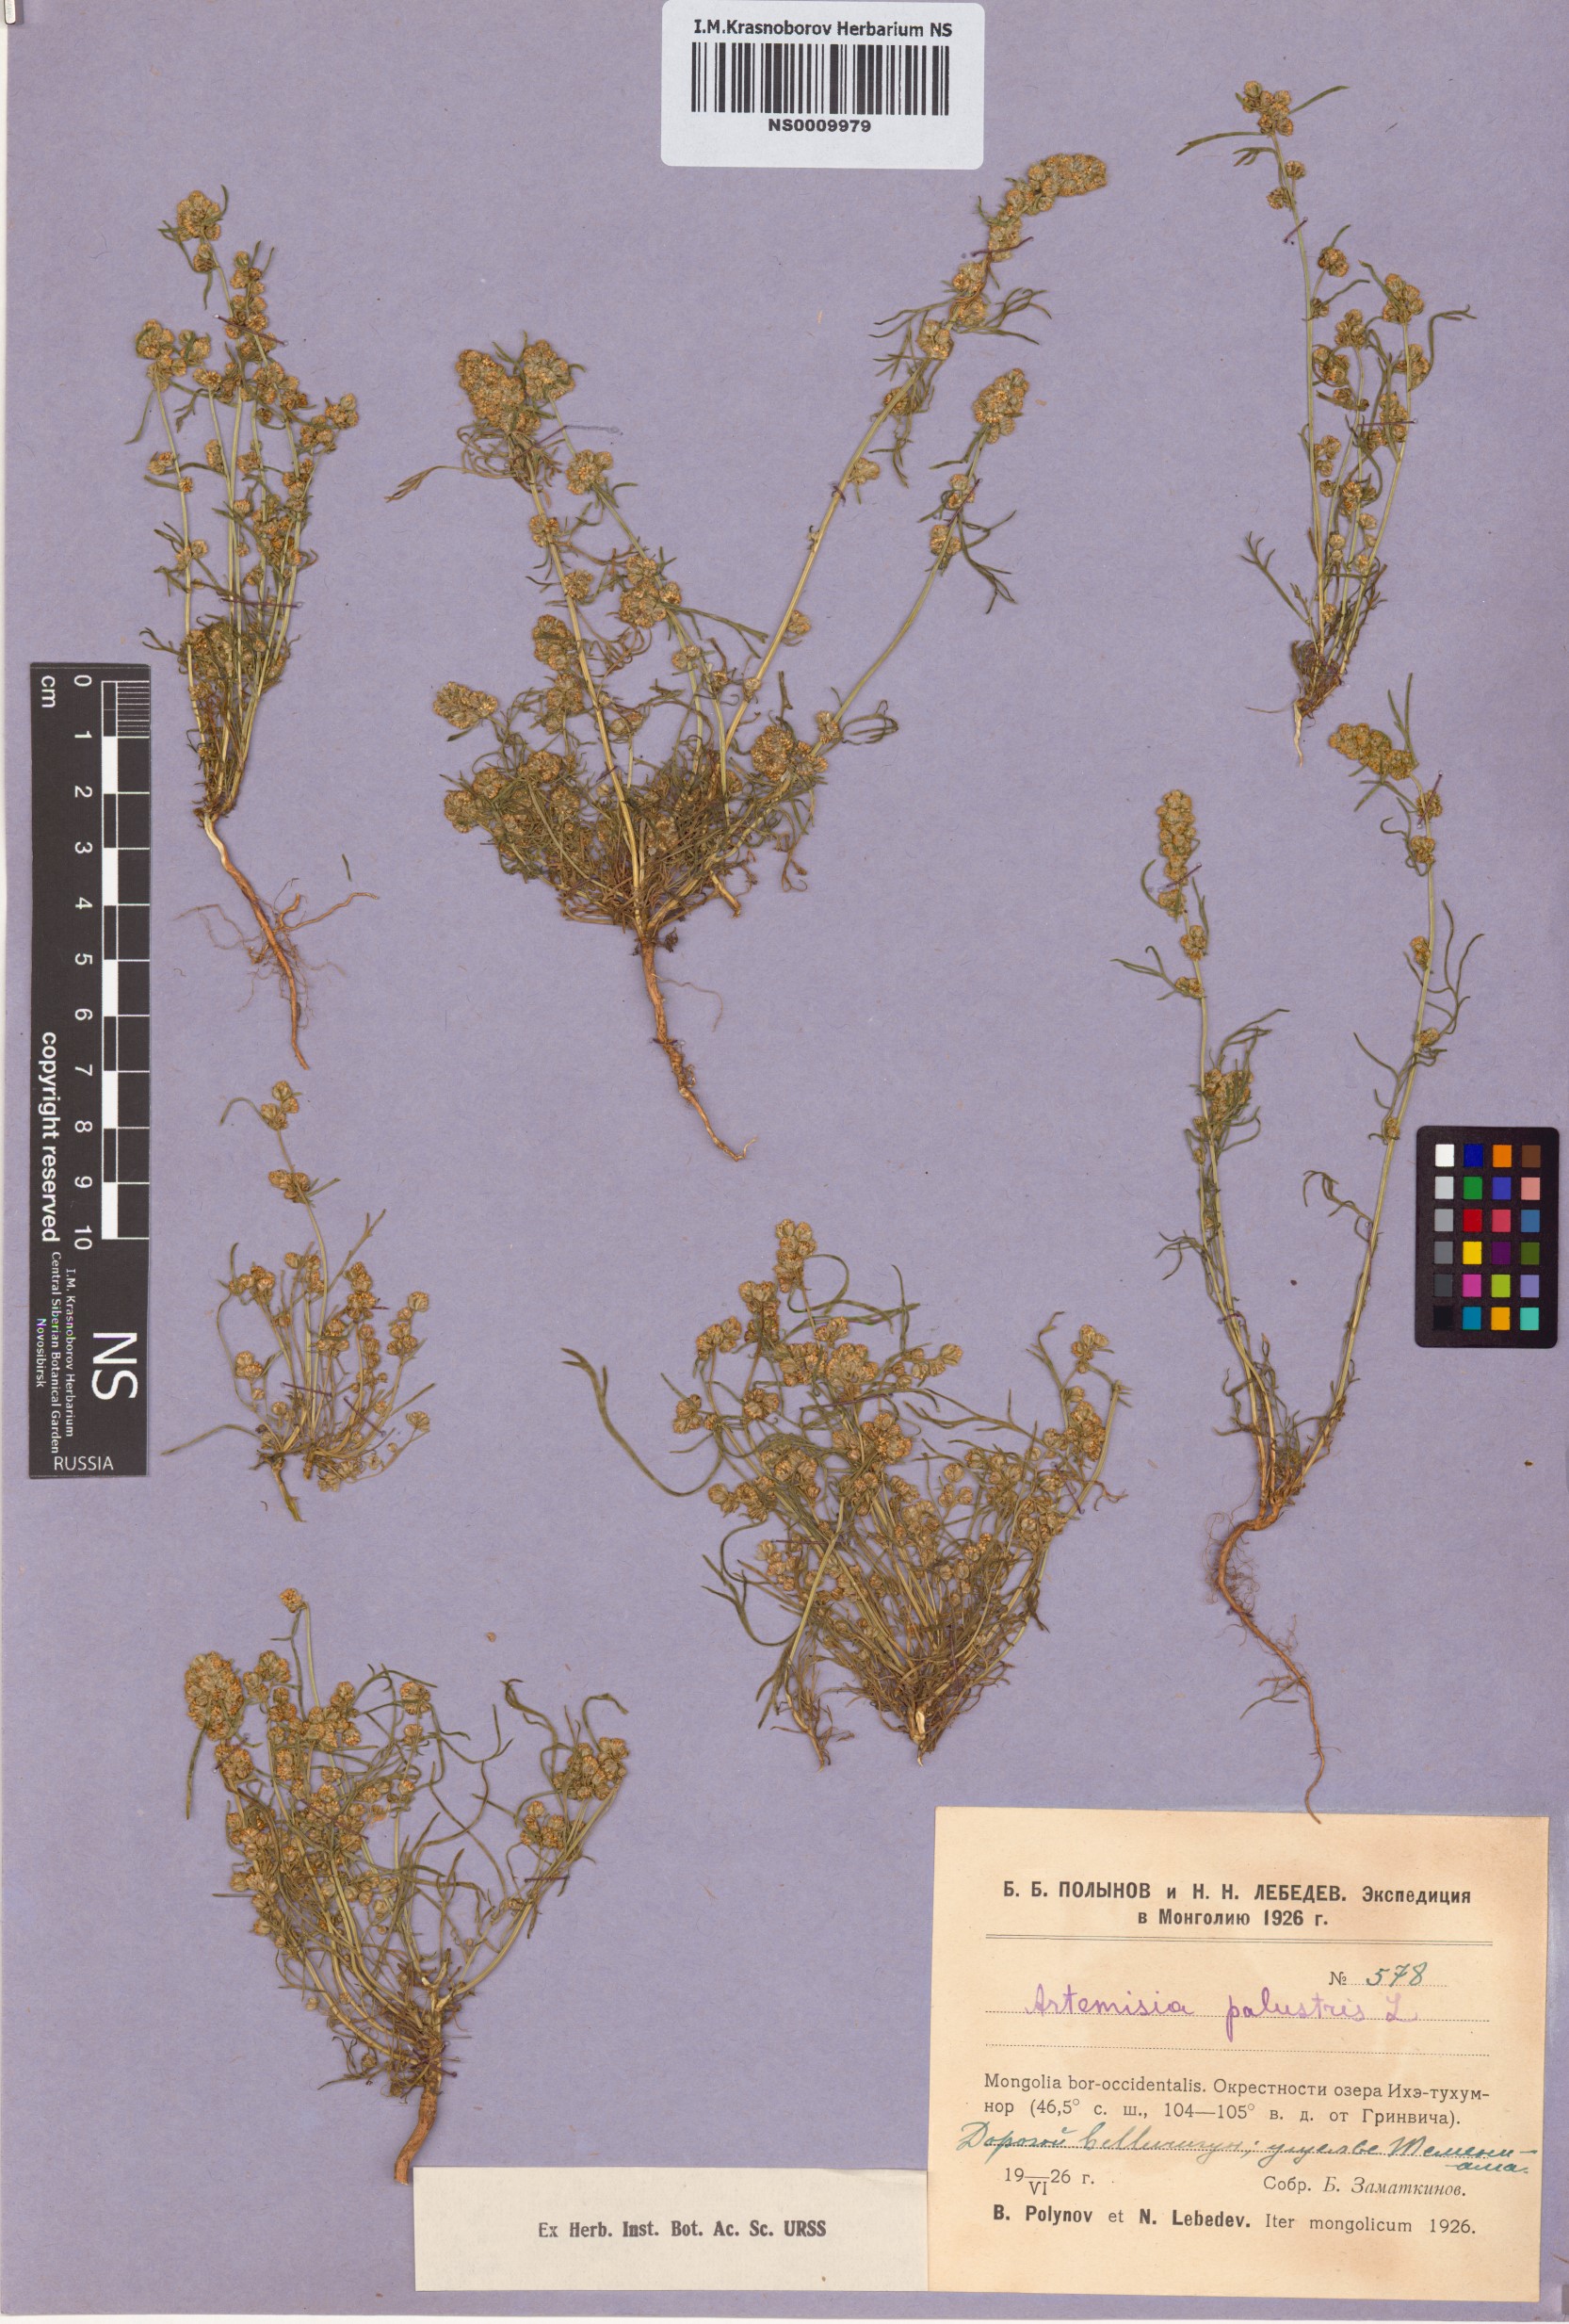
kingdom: Plantae
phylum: Tracheophyta
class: Magnoliopsida
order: Asterales
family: Asteraceae
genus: Artemisia
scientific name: Artemisia palustris
